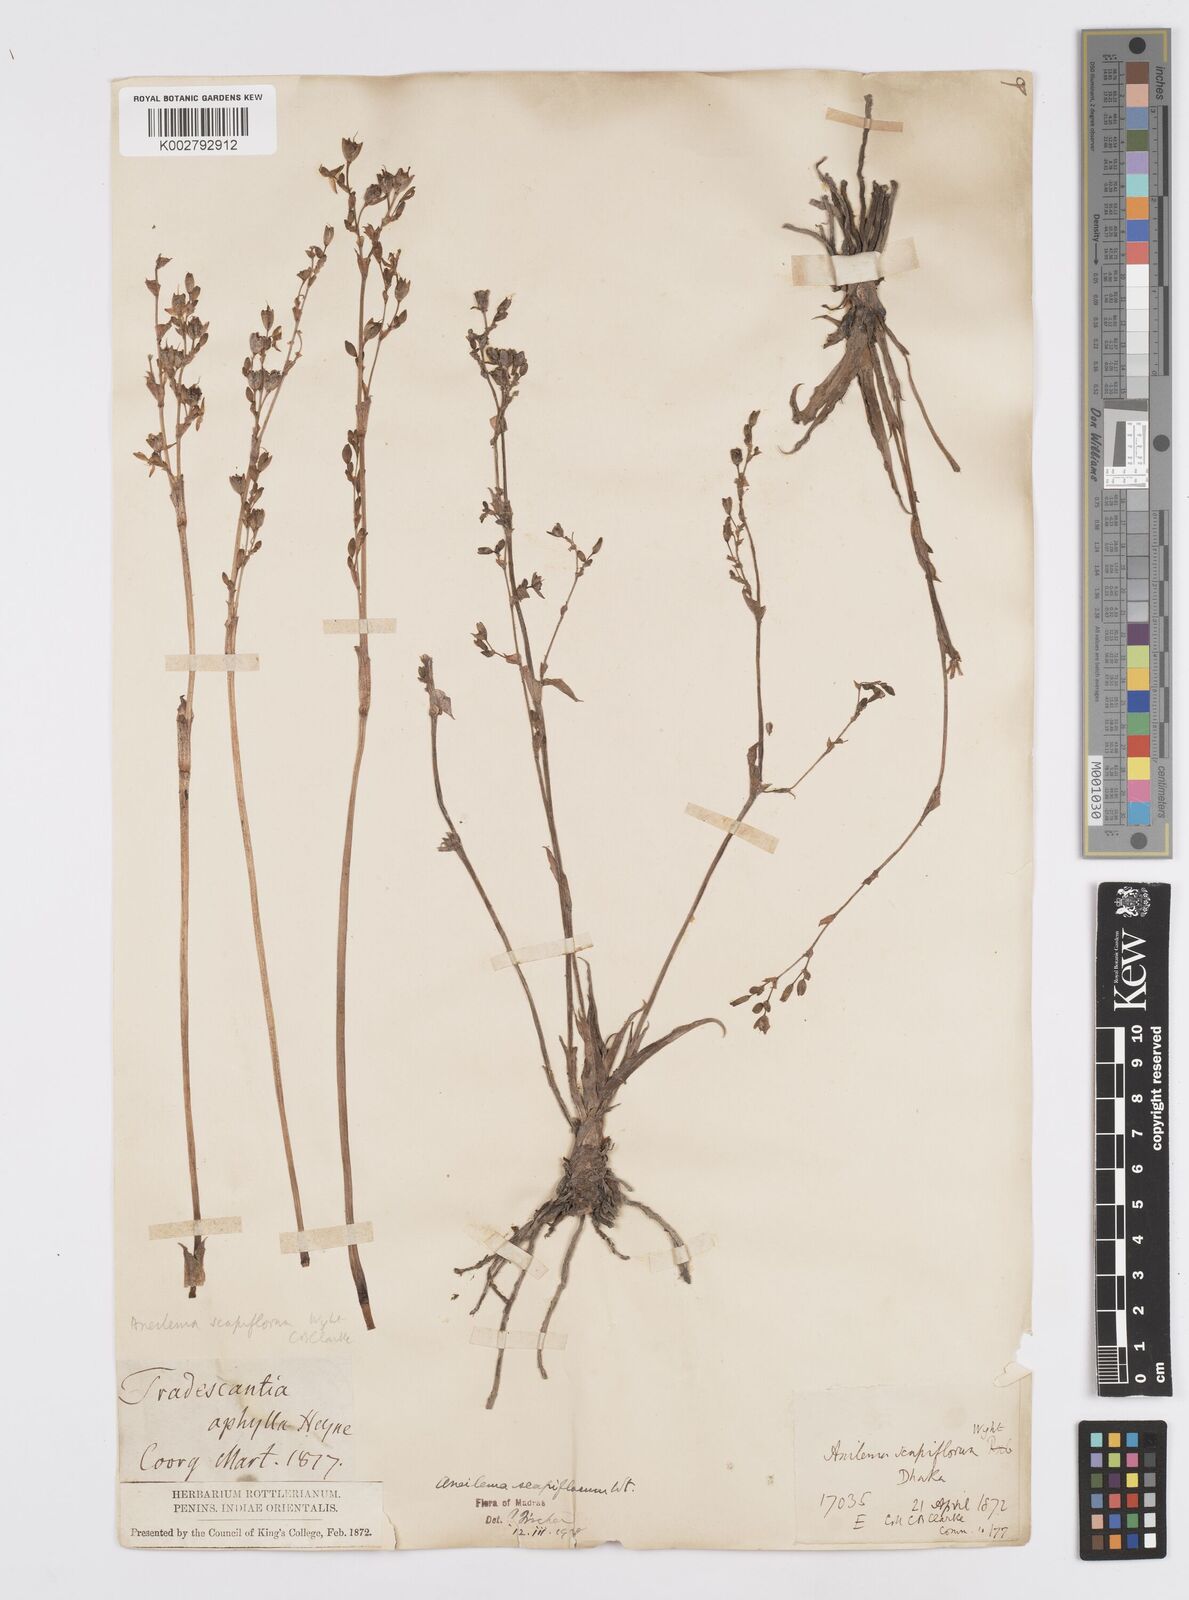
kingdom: Plantae
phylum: Tracheophyta
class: Liliopsida
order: Commelinales
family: Commelinaceae
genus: Murdannia
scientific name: Murdannia edulis
